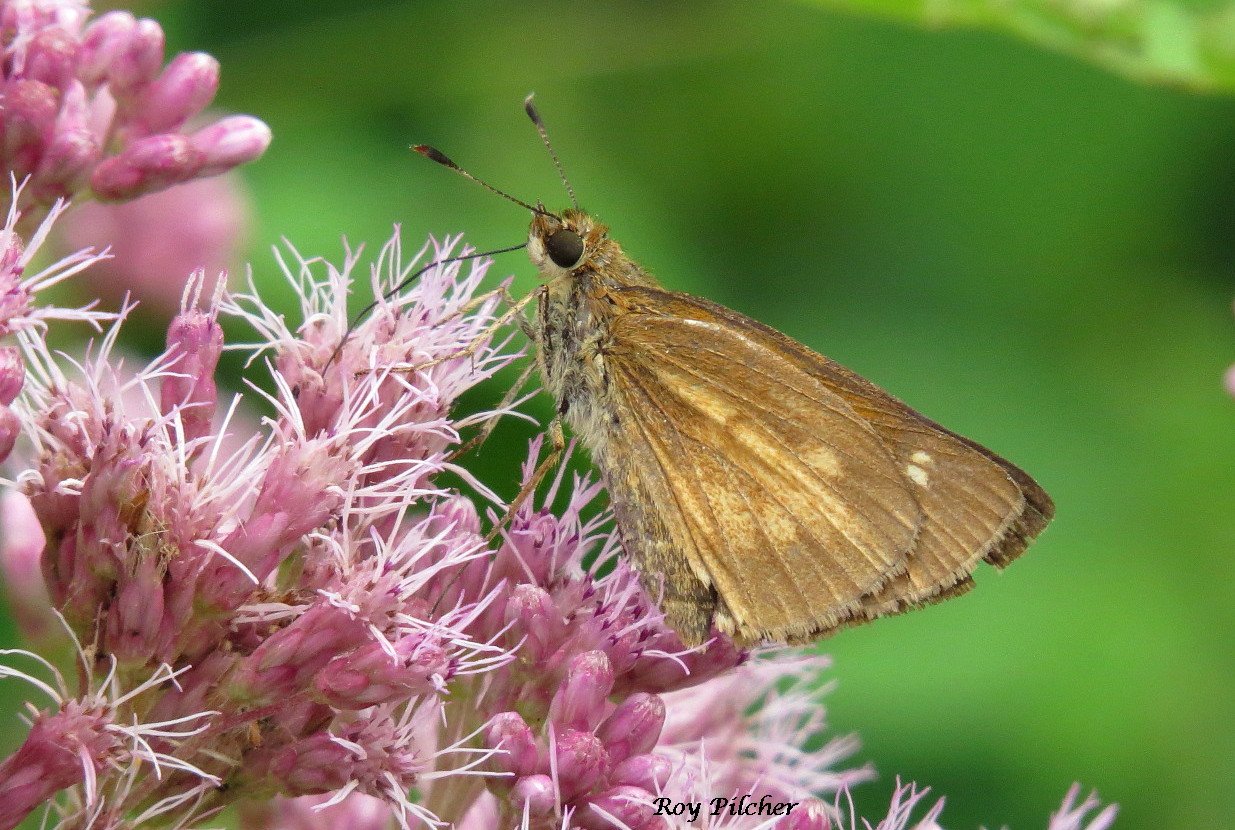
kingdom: Animalia
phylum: Arthropoda
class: Insecta
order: Lepidoptera
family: Hesperiidae
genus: Poanes
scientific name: Poanes viator
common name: Broad-winged Skipper
